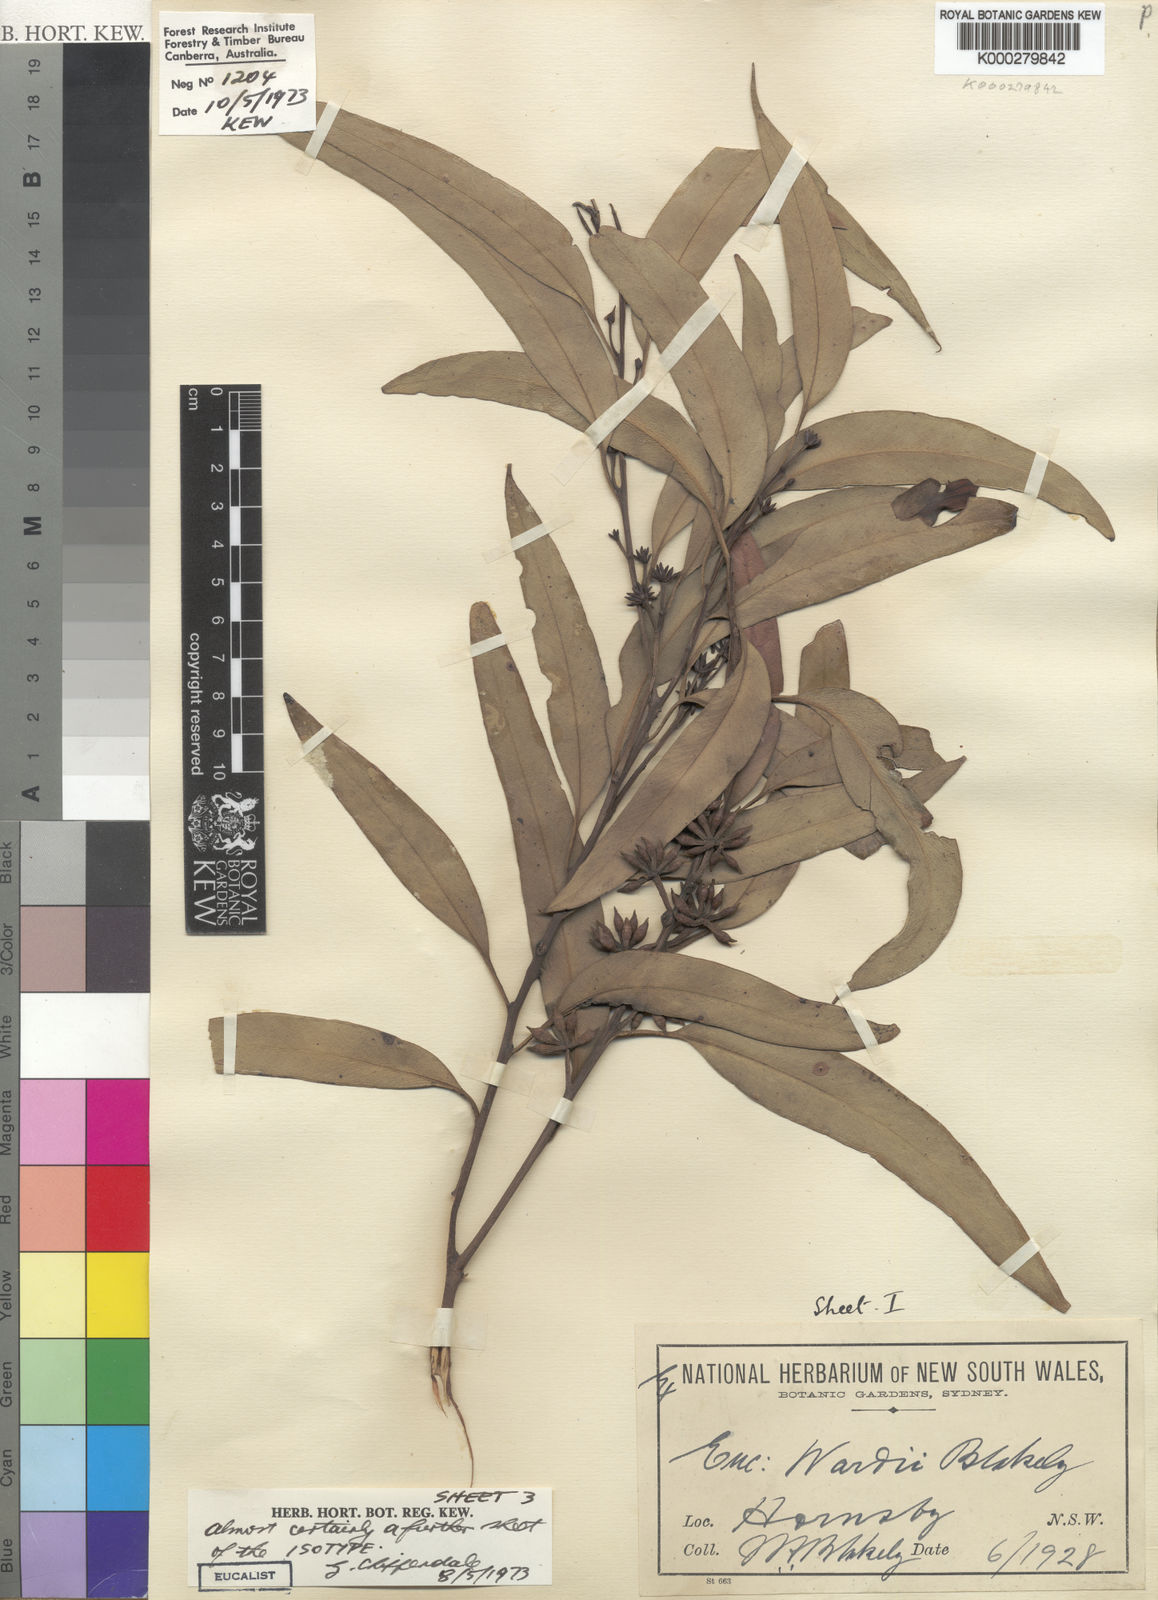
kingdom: Plantae
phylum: Tracheophyta
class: Magnoliopsida
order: Myrtales
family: Myrtaceae
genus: Eucalyptus
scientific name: Eucalyptus wardii
